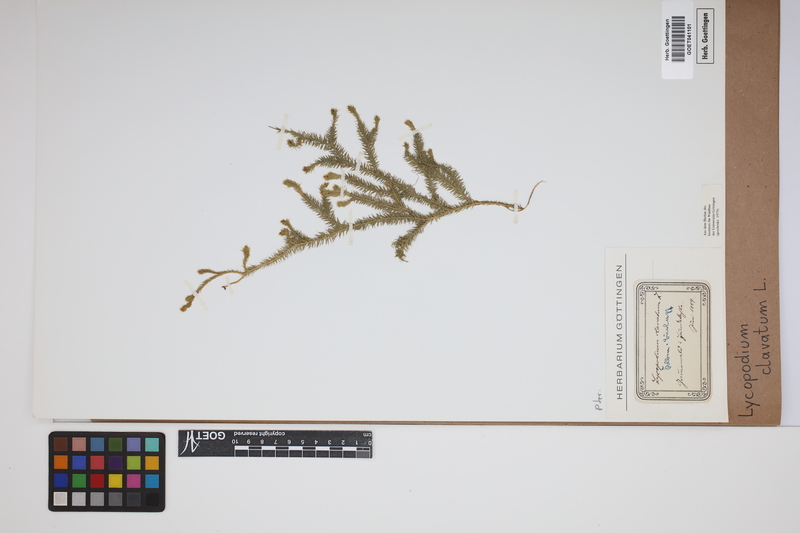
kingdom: Plantae
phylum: Tracheophyta
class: Lycopodiopsida
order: Lycopodiales
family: Lycopodiaceae
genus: Lycopodium
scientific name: Lycopodium clavatum
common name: Stag's-horn clubmoss
